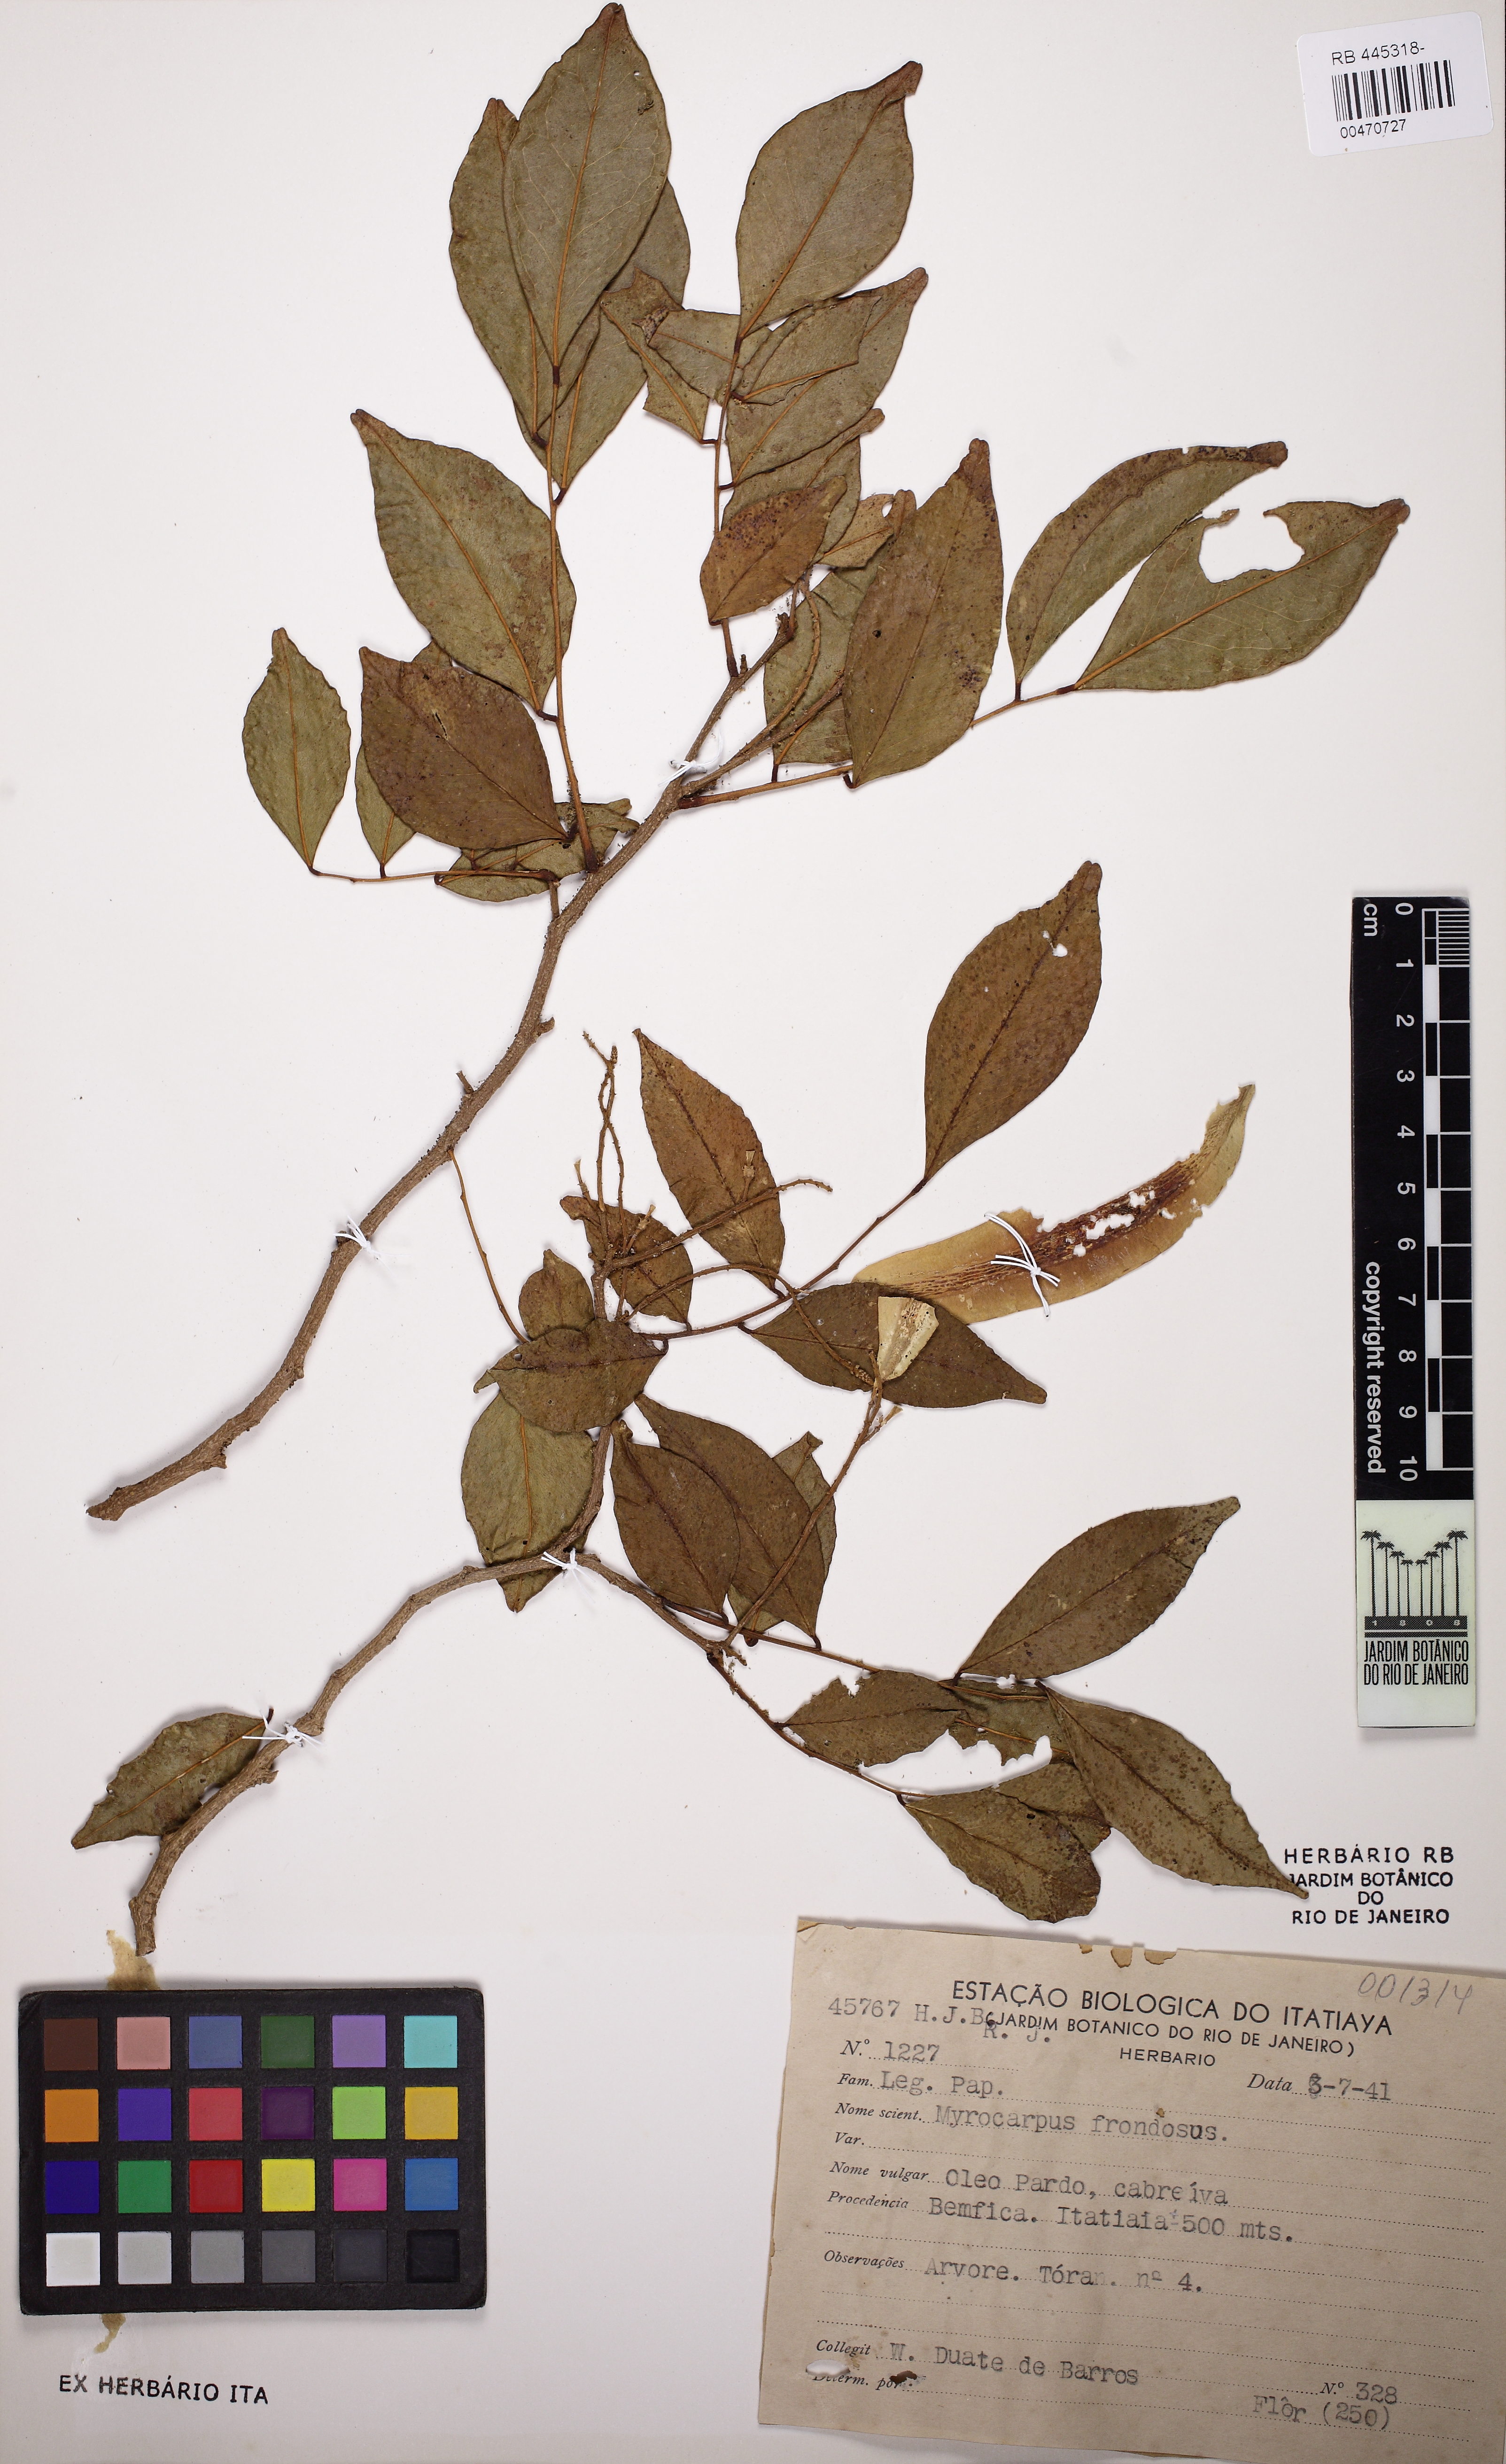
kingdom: Plantae
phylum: Tracheophyta
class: Magnoliopsida
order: Fabales
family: Fabaceae
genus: Myrocarpus
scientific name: Myrocarpus frondosus
